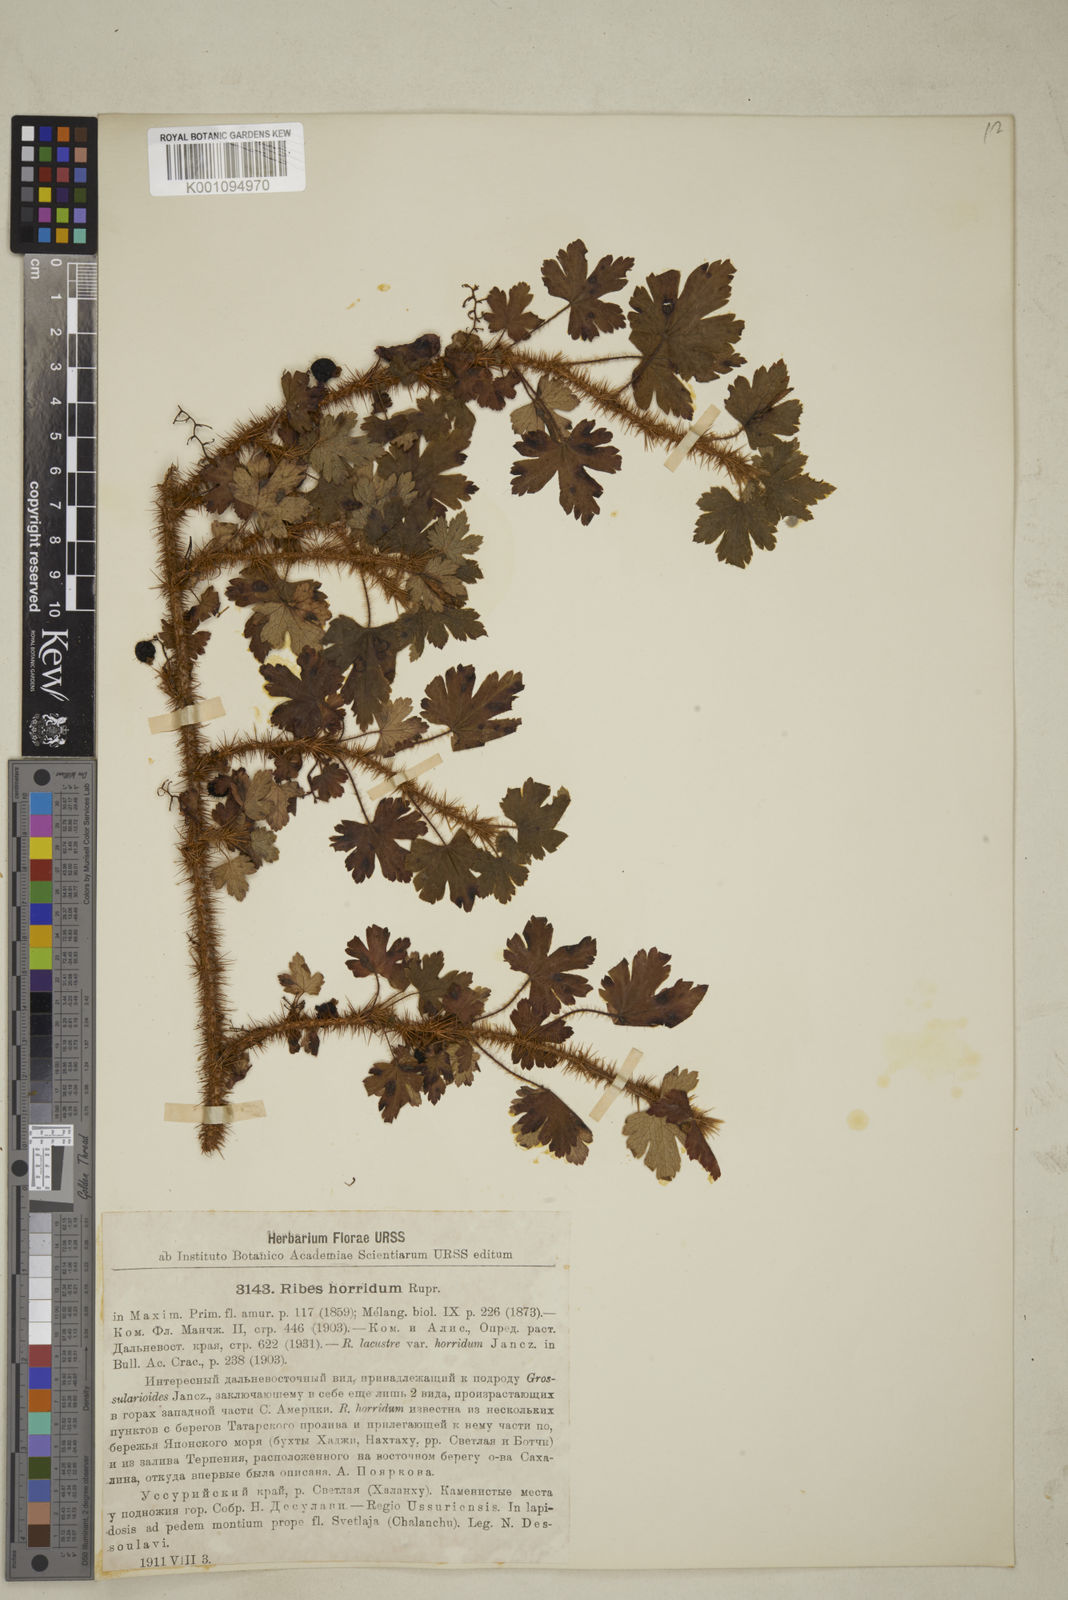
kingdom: Plantae
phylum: Tracheophyta
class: Magnoliopsida
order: Saxifragales
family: Grossulariaceae
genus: Ribes
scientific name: Ribes horridum
